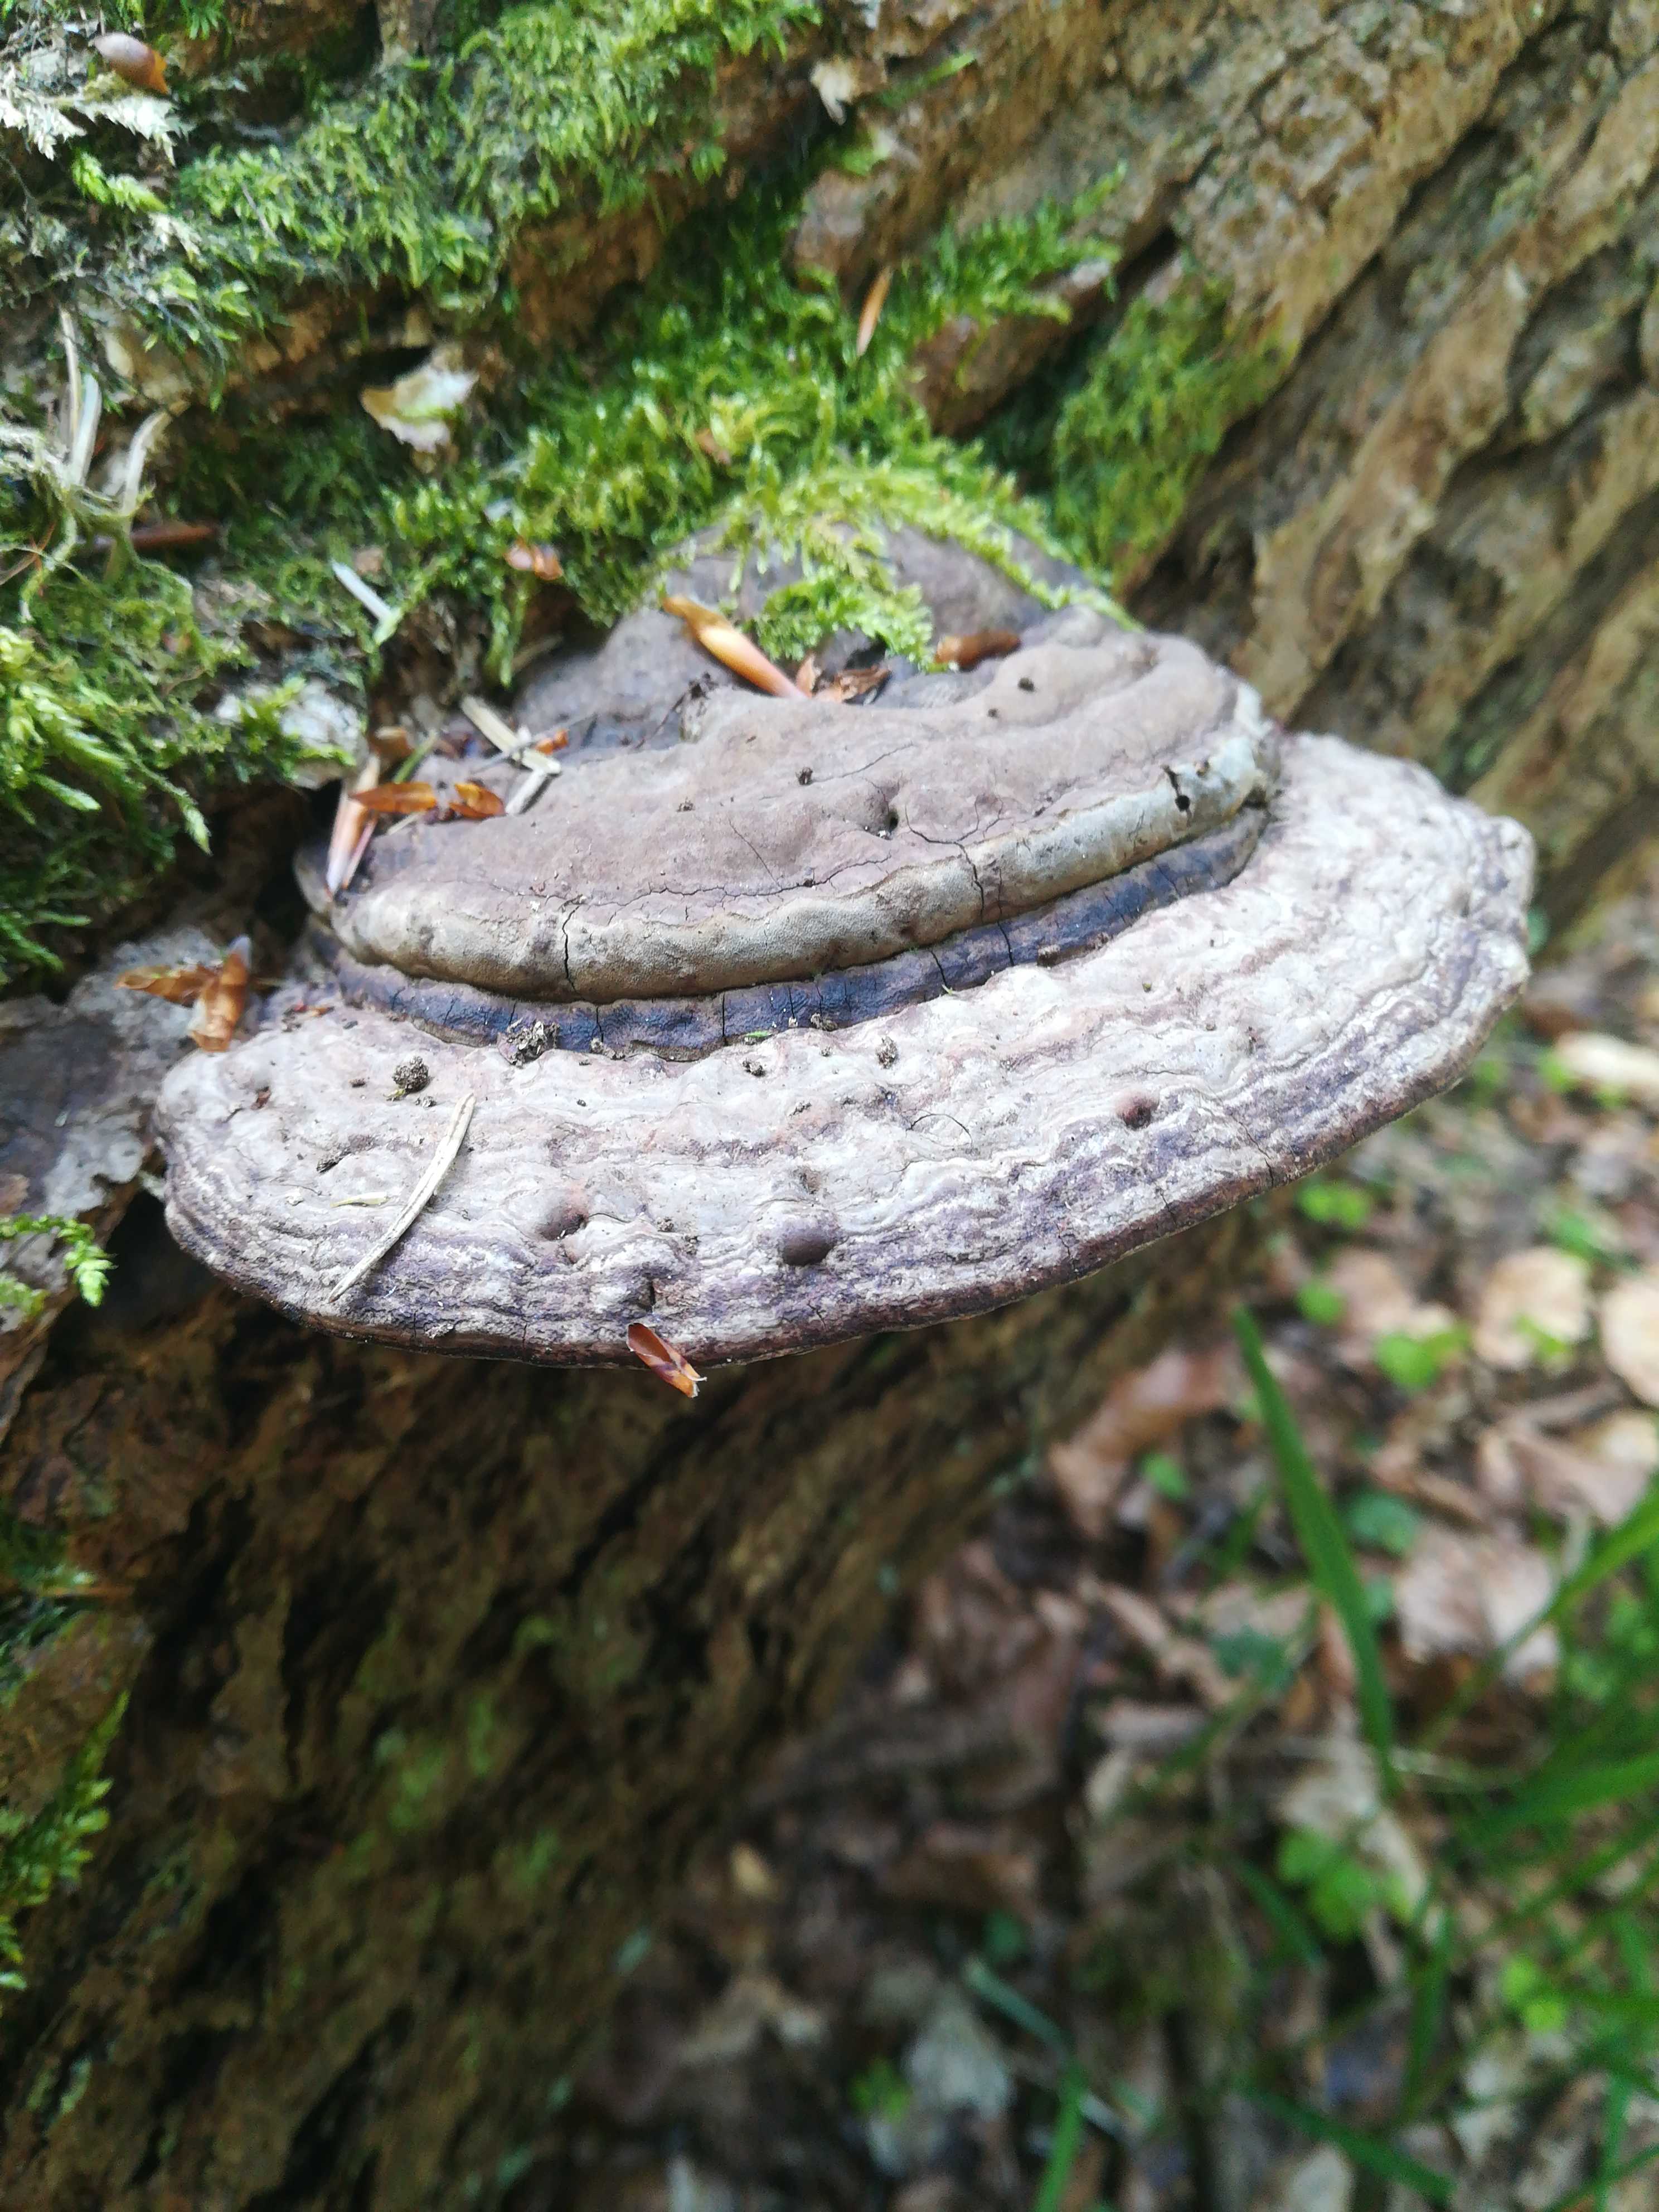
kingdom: Fungi
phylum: Basidiomycota
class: Agaricomycetes
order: Polyporales
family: Polyporaceae
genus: Ganoderma
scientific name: Ganoderma applanatum
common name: flad lakporesvamp
